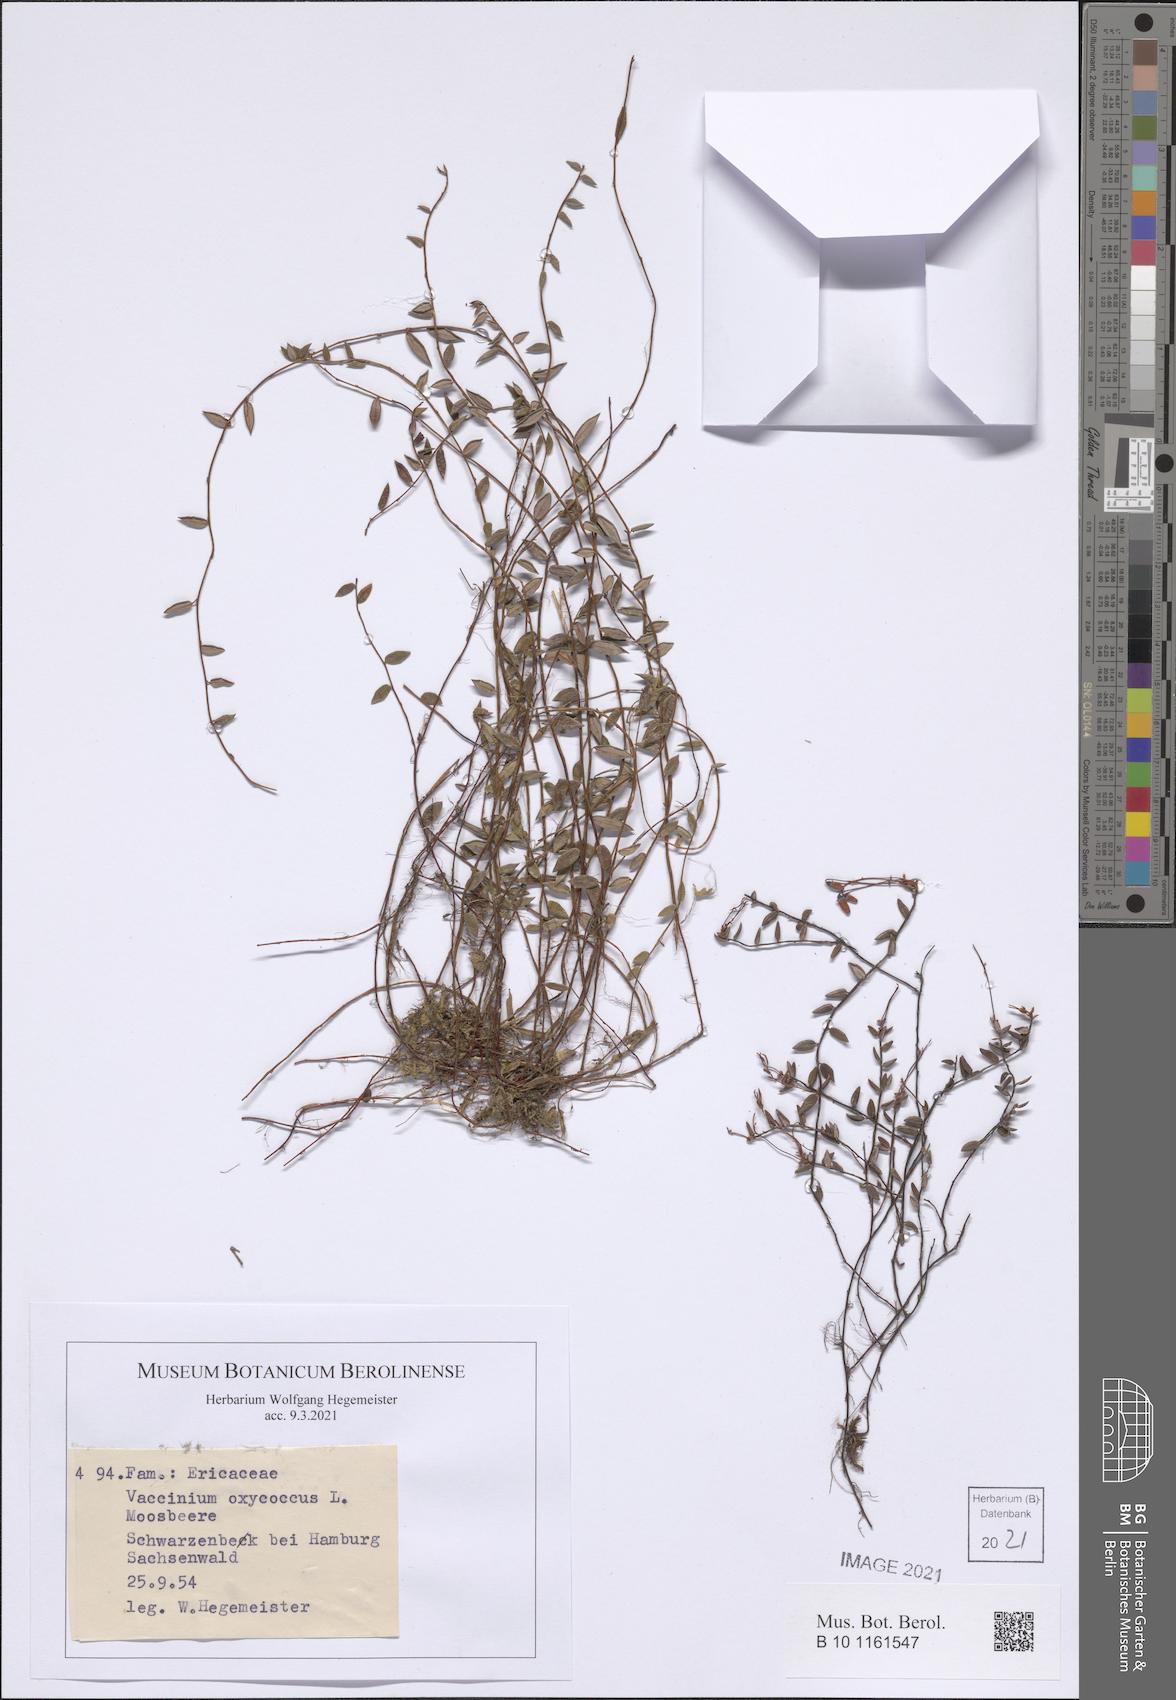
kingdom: Plantae
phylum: Tracheophyta
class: Magnoliopsida
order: Ericales
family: Ericaceae
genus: Vaccinium
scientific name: Vaccinium oxycoccos
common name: Cranberry
